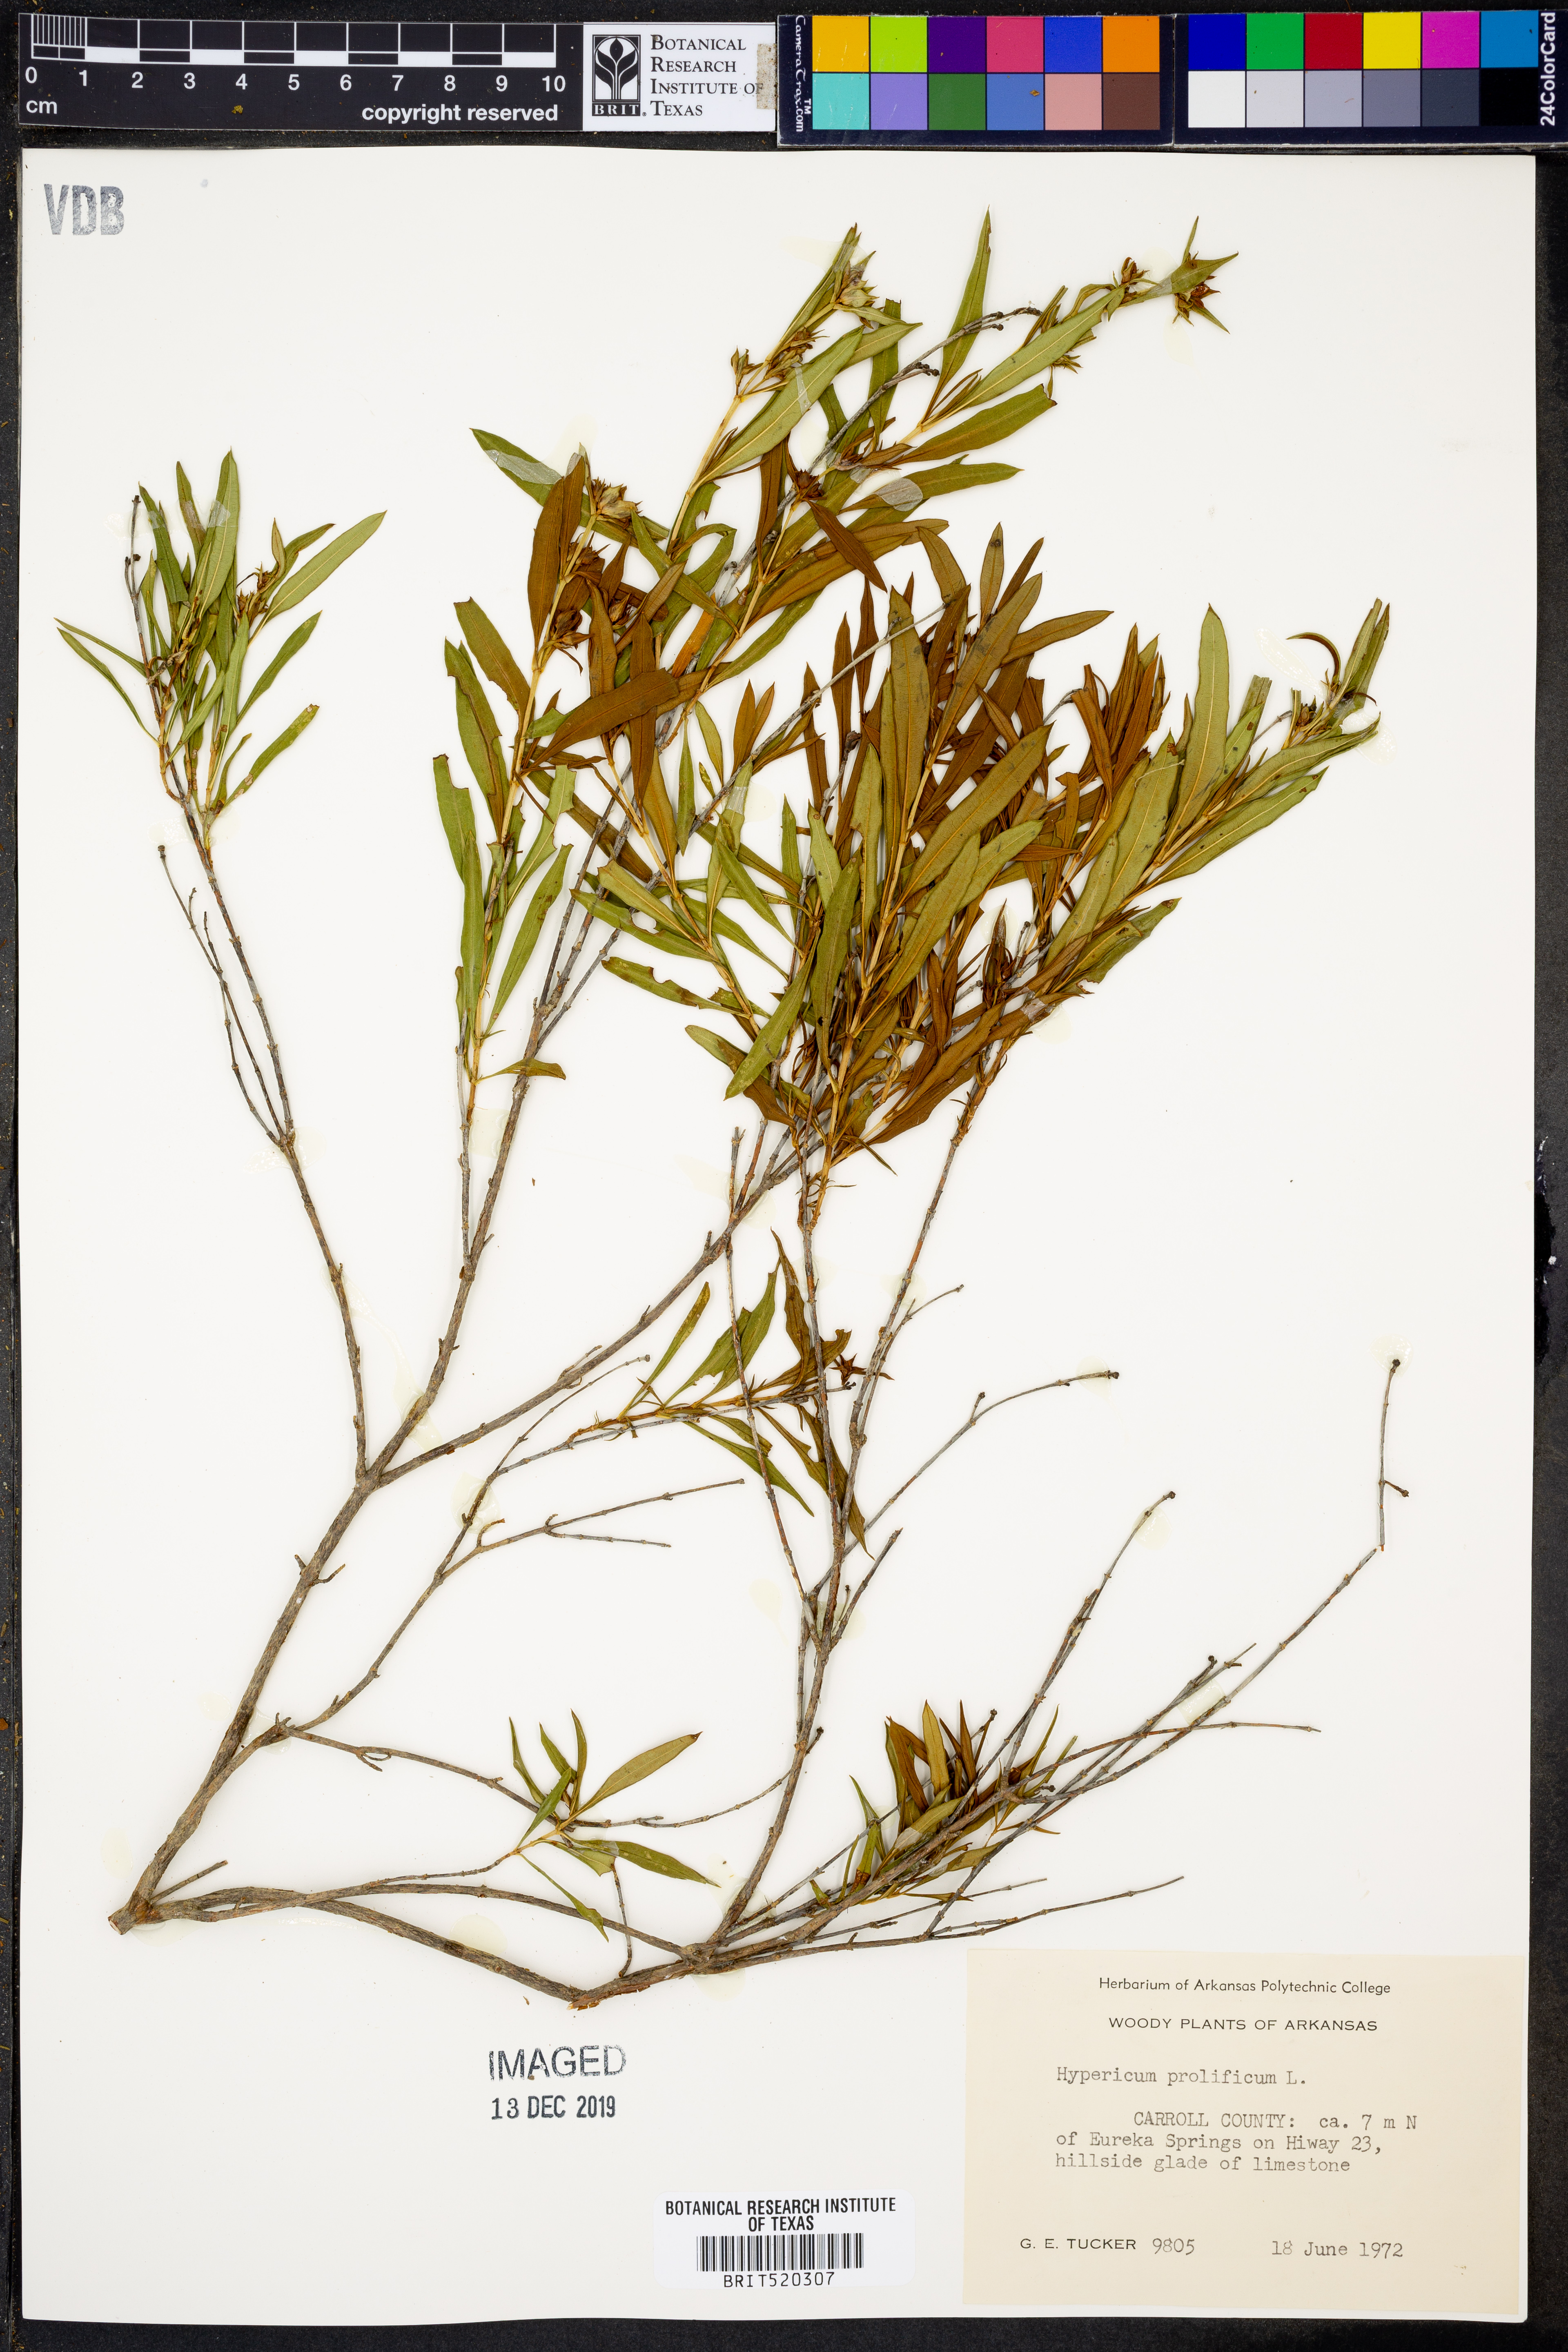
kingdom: Plantae
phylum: Tracheophyta
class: Magnoliopsida
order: Malpighiales
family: Hypericaceae
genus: Hypericum
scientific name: Hypericum prolificum
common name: Shrubby st. john's-wort
